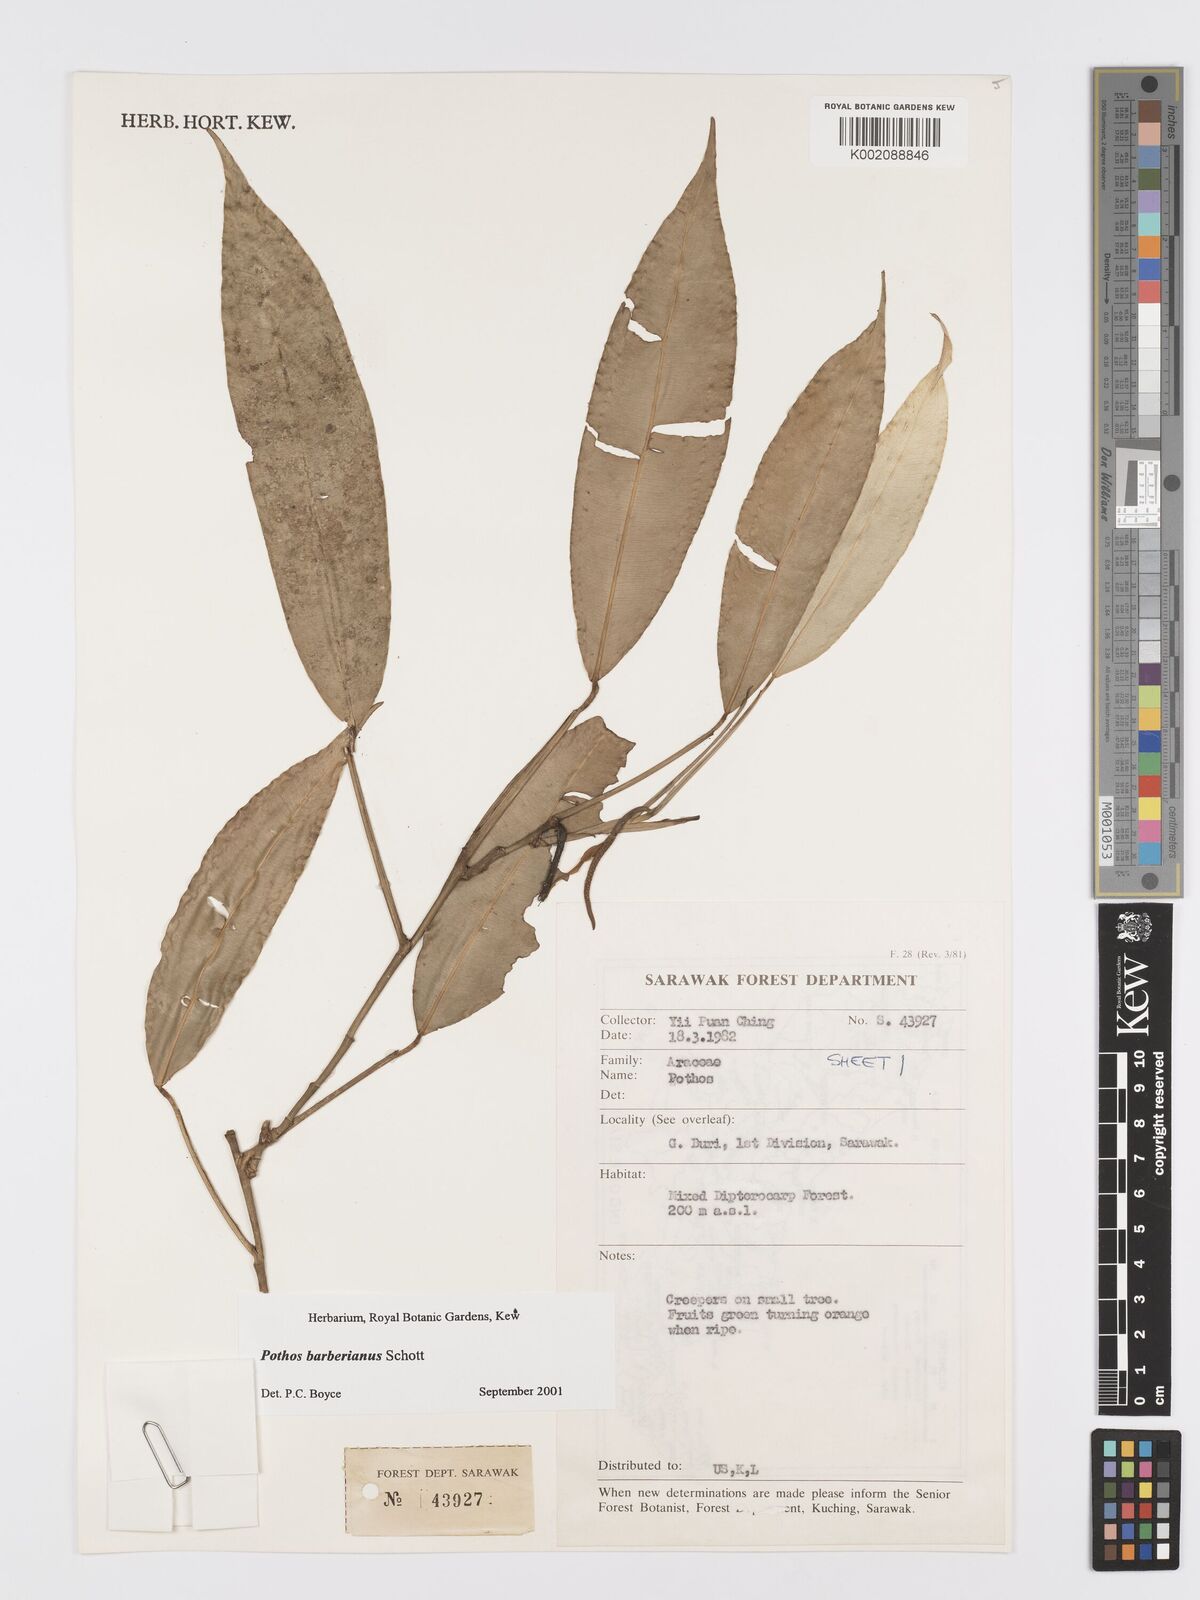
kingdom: Plantae
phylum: Tracheophyta
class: Liliopsida
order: Alismatales
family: Araceae
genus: Pothos
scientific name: Pothos barberianus
